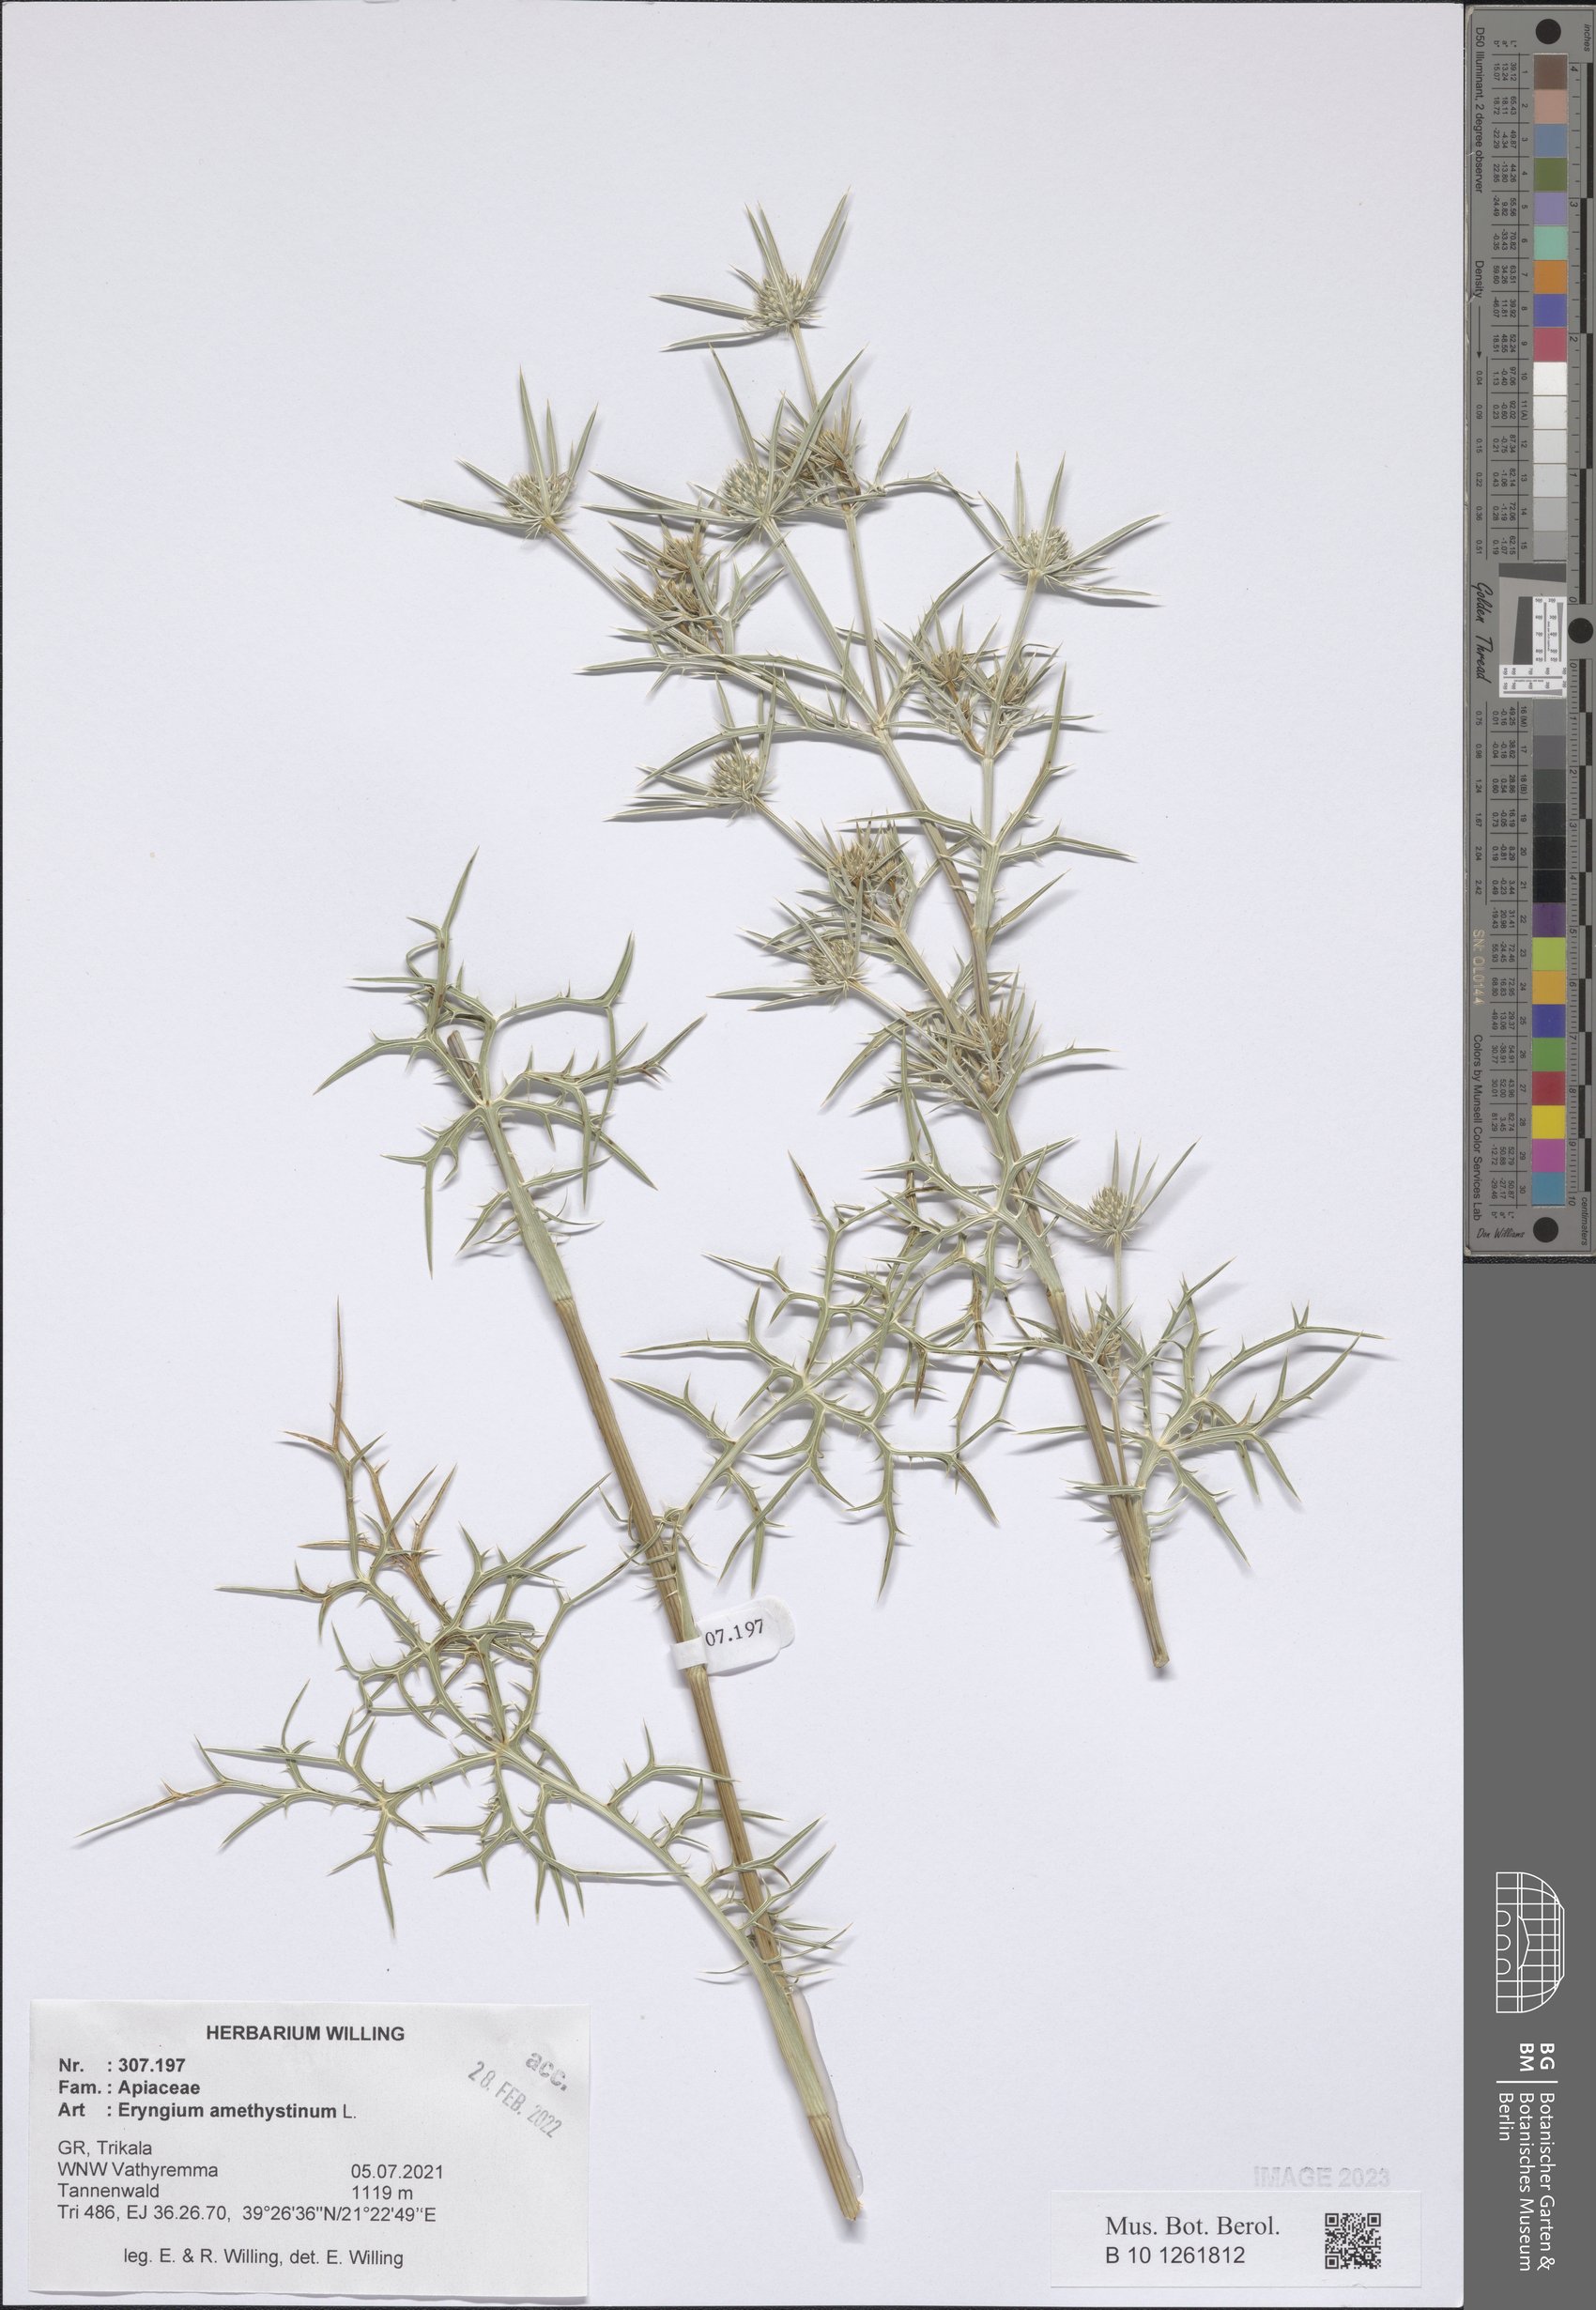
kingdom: Plantae
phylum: Tracheophyta
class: Magnoliopsida
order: Apiales
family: Apiaceae
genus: Eryngium
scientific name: Eryngium amethystinum
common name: Amethyst eryngo
